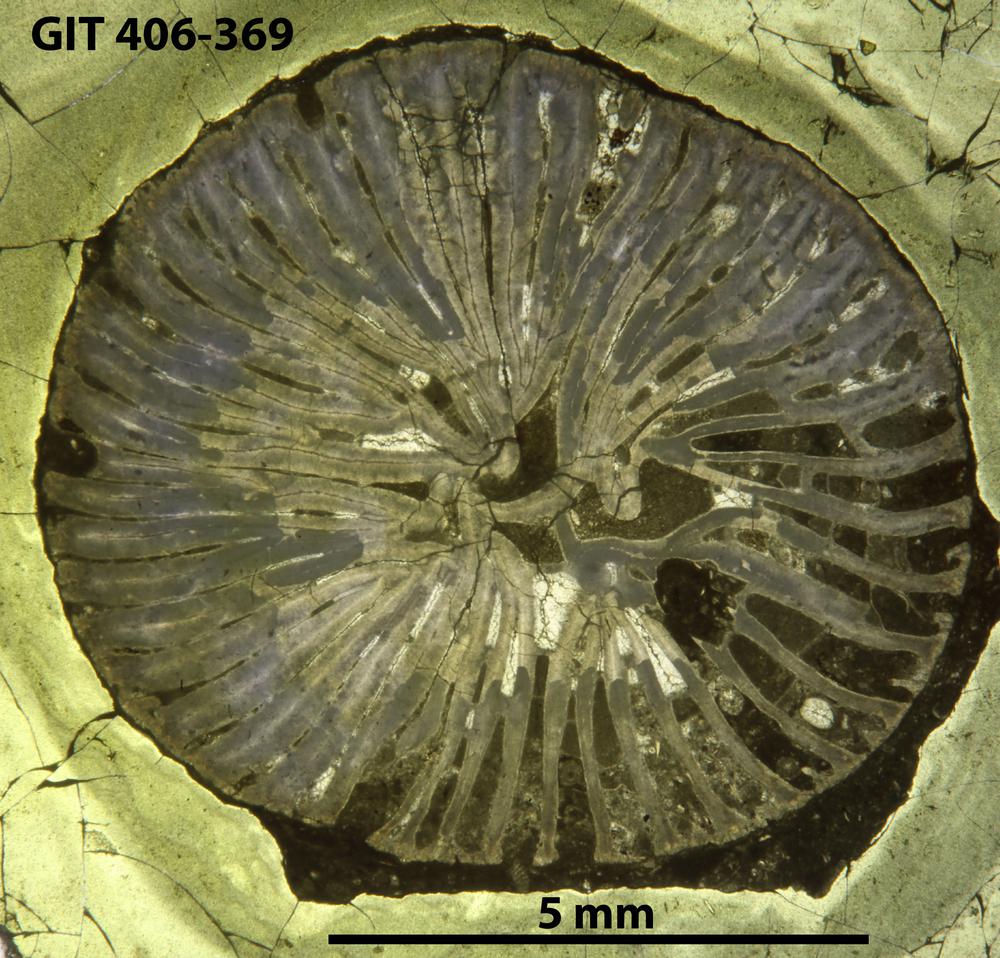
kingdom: Animalia
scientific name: Animalia
